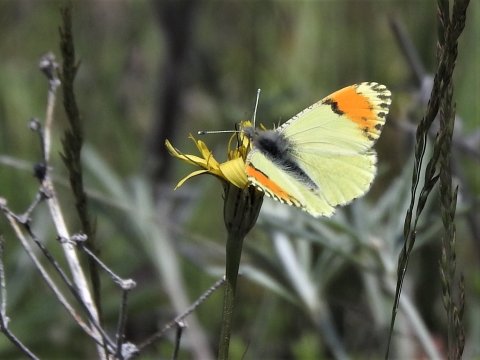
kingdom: Animalia
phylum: Arthropoda
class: Insecta
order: Lepidoptera
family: Pieridae
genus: Anthocharis
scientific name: Anthocharis sara
